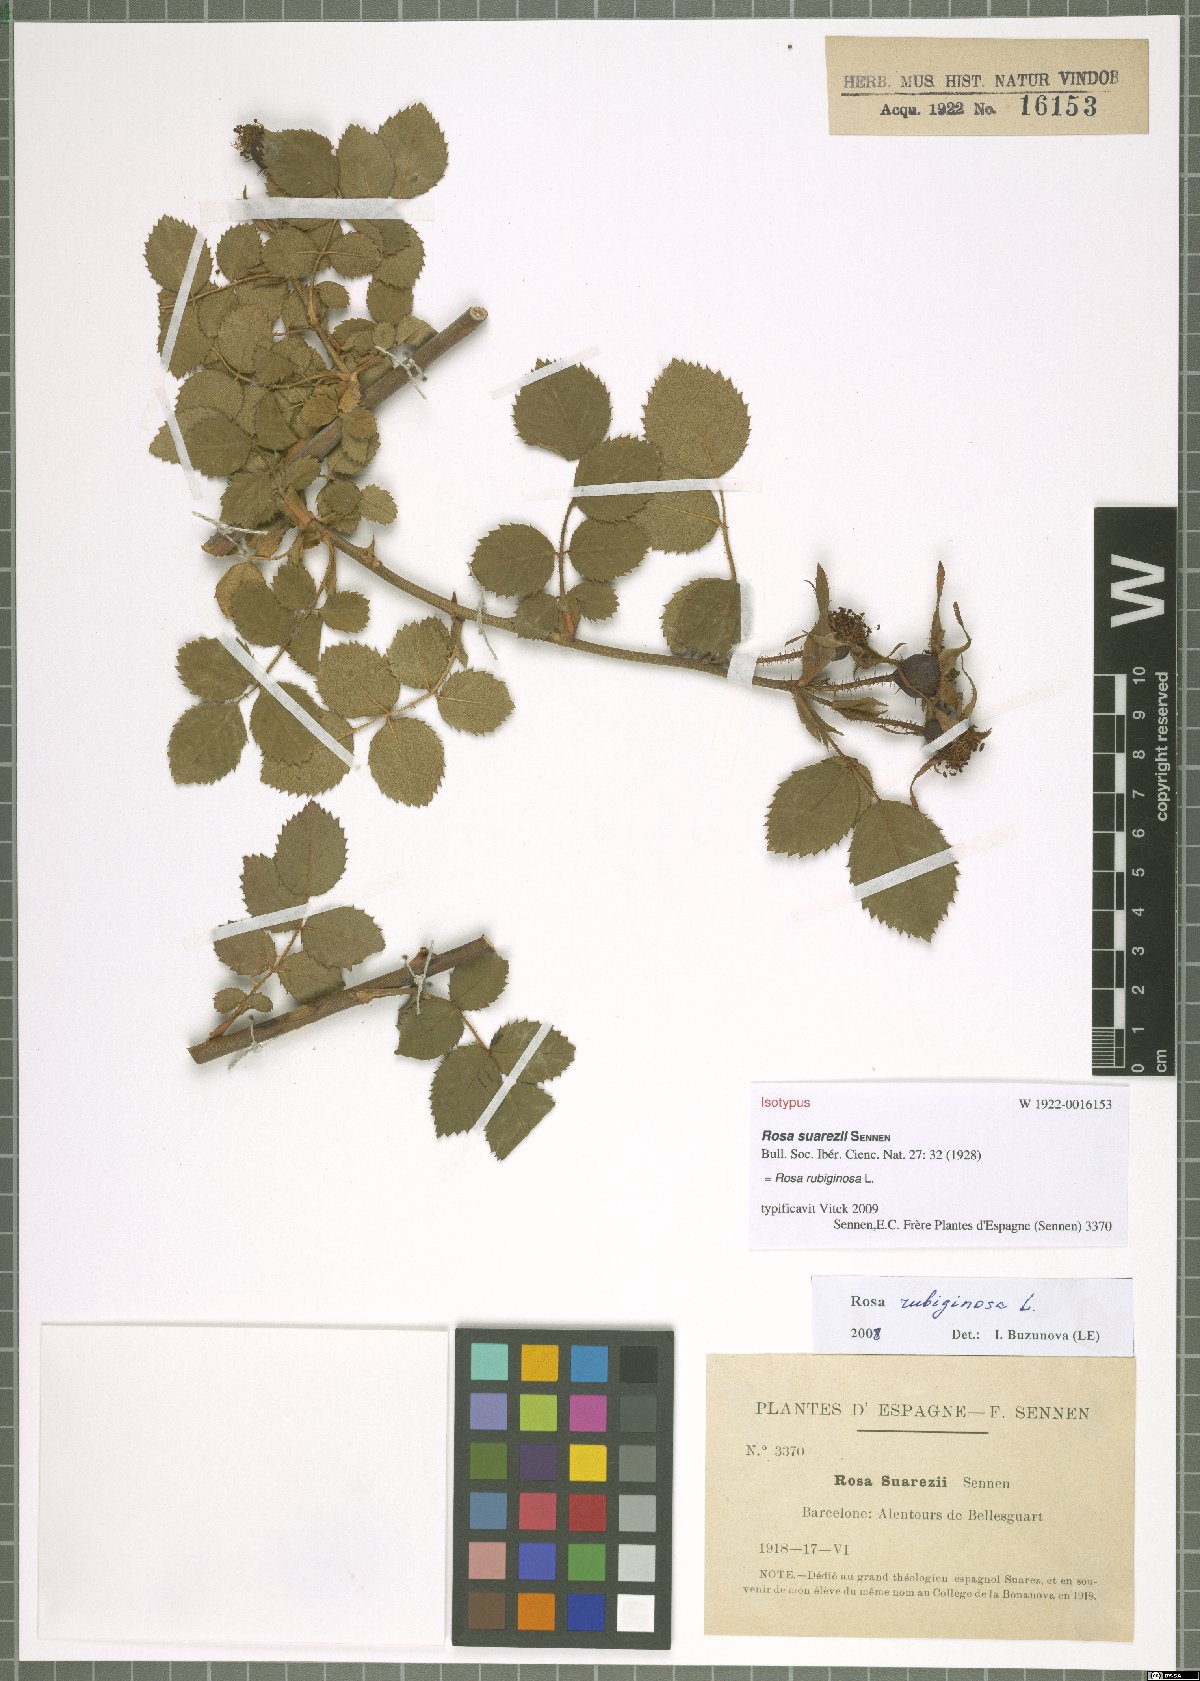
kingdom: Plantae
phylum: Tracheophyta
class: Magnoliopsida
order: Rosales
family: Rosaceae
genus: Rosa
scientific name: Rosa rubiginosa
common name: Sweet-briar
